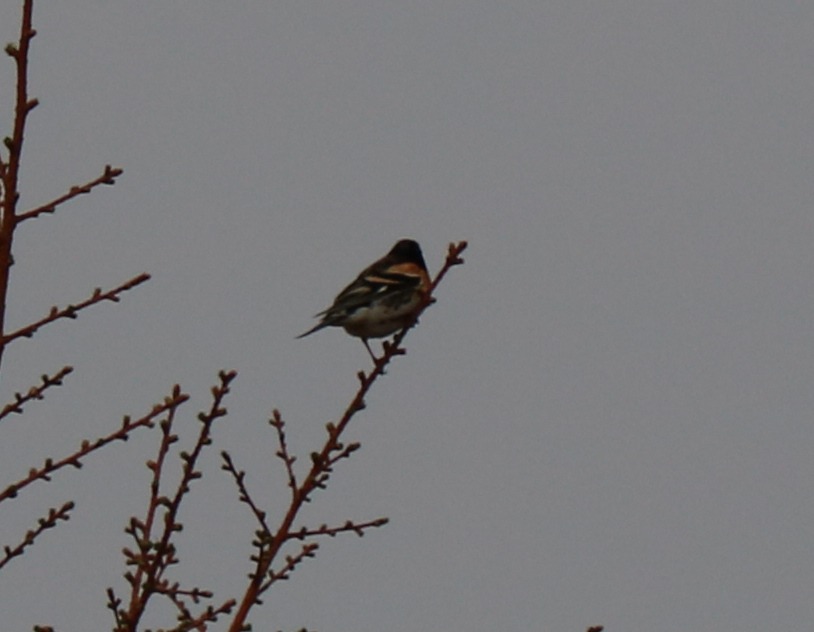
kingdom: Animalia
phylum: Chordata
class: Aves
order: Passeriformes
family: Fringillidae
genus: Fringilla
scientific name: Fringilla montifringilla
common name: Kvækerfinke
